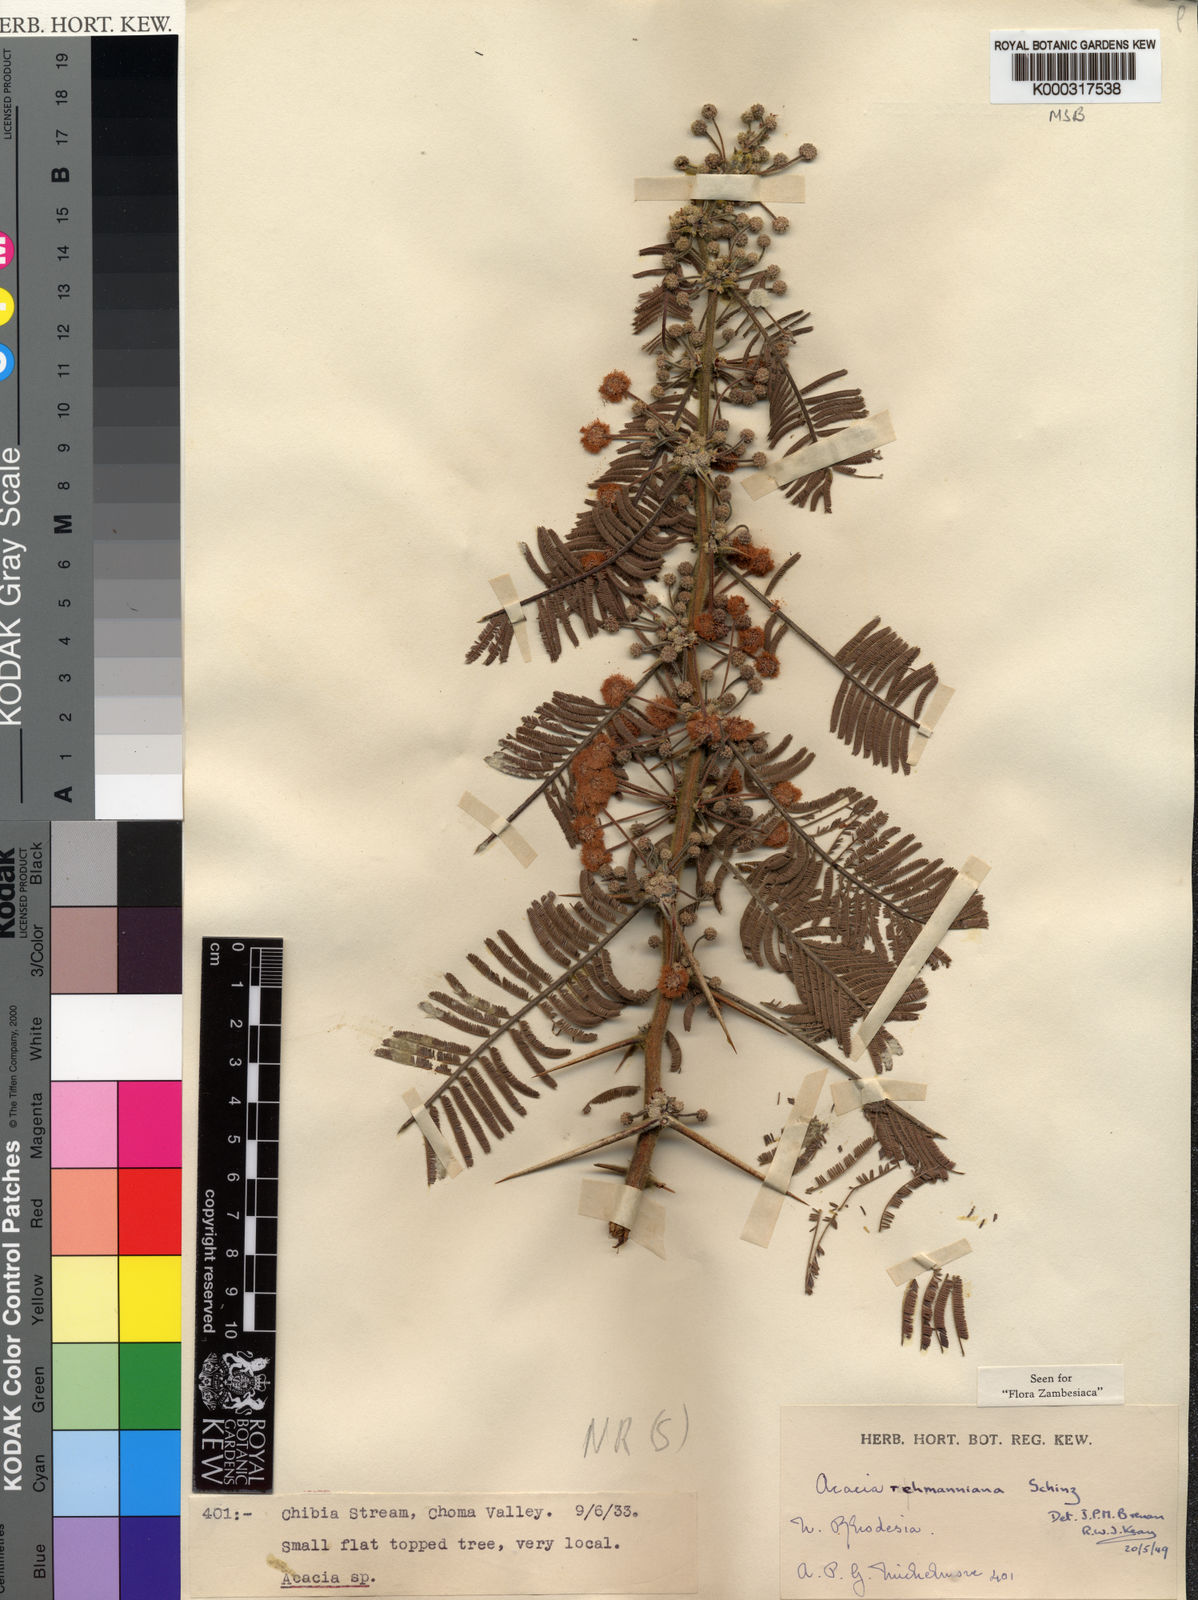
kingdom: Plantae
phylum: Tracheophyta
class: Magnoliopsida
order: Fabales
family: Fabaceae
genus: Vachellia
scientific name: Vachellia rehmanniana
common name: Silky thorn
